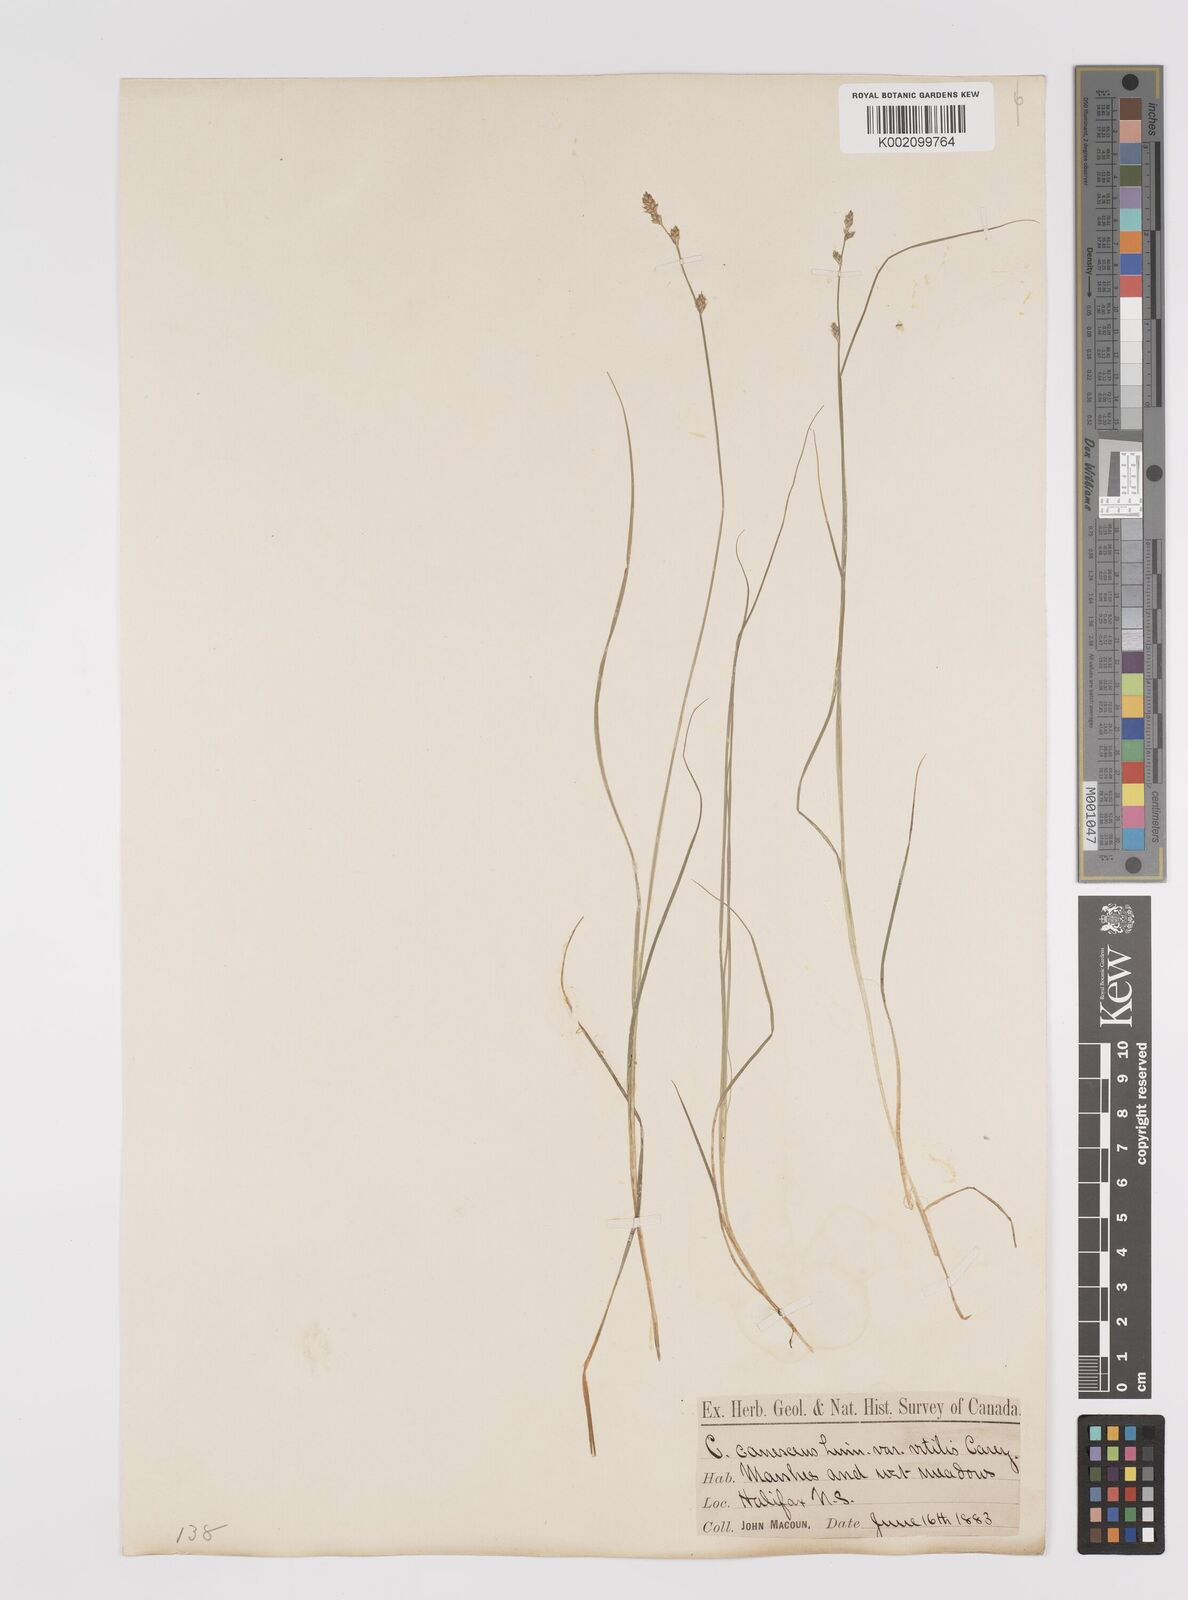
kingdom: Plantae
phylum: Tracheophyta
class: Liliopsida
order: Poales
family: Cyperaceae
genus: Carex
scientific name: Carex curta
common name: White sedge
